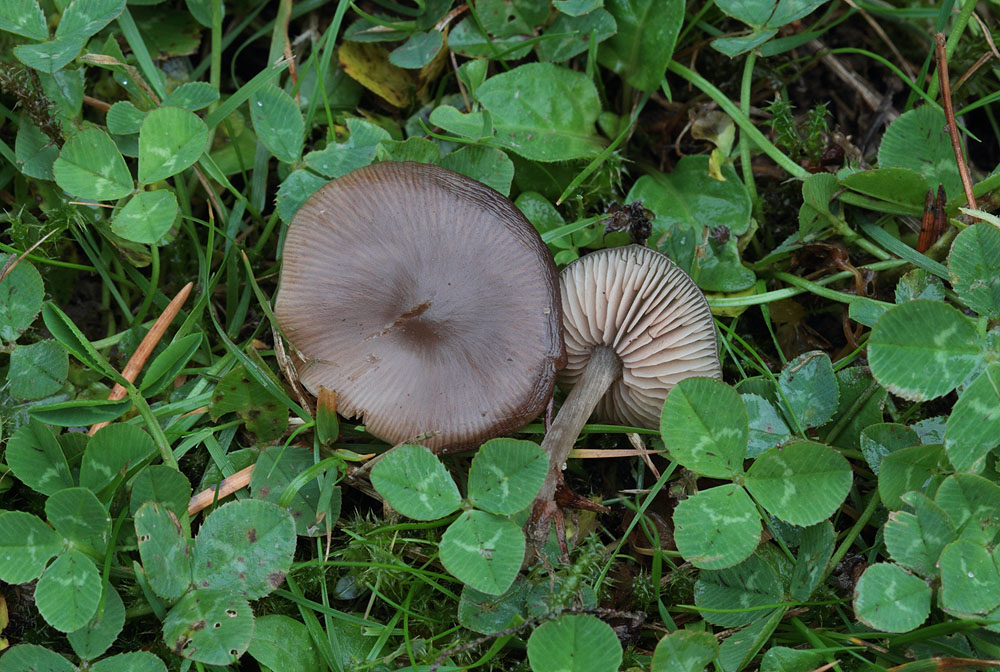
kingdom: Fungi
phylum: Basidiomycota
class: Agaricomycetes
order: Agaricales
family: Entolomataceae
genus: Entoloma
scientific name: Entoloma sericeum
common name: silkeglinsende rødblad
